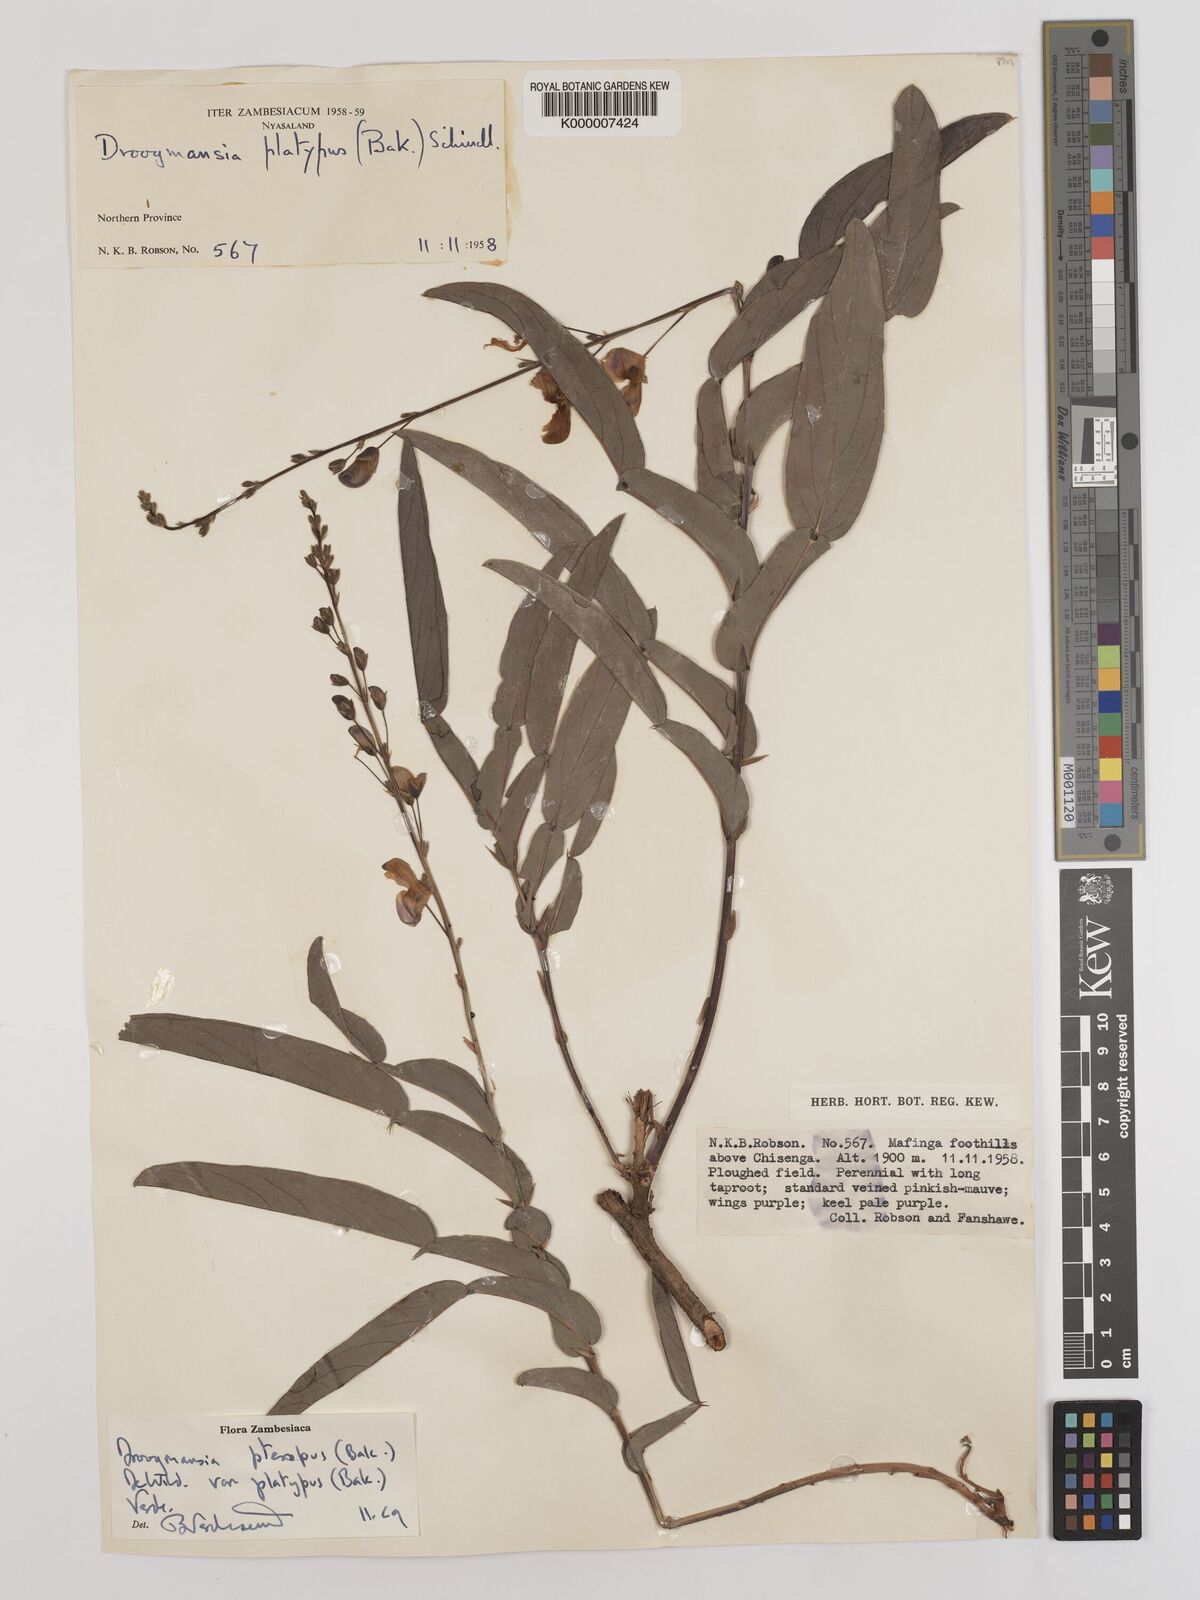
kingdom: Plantae
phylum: Tracheophyta
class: Magnoliopsida
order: Fabales
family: Fabaceae
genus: Droogmansia
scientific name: Droogmansia pteropus
